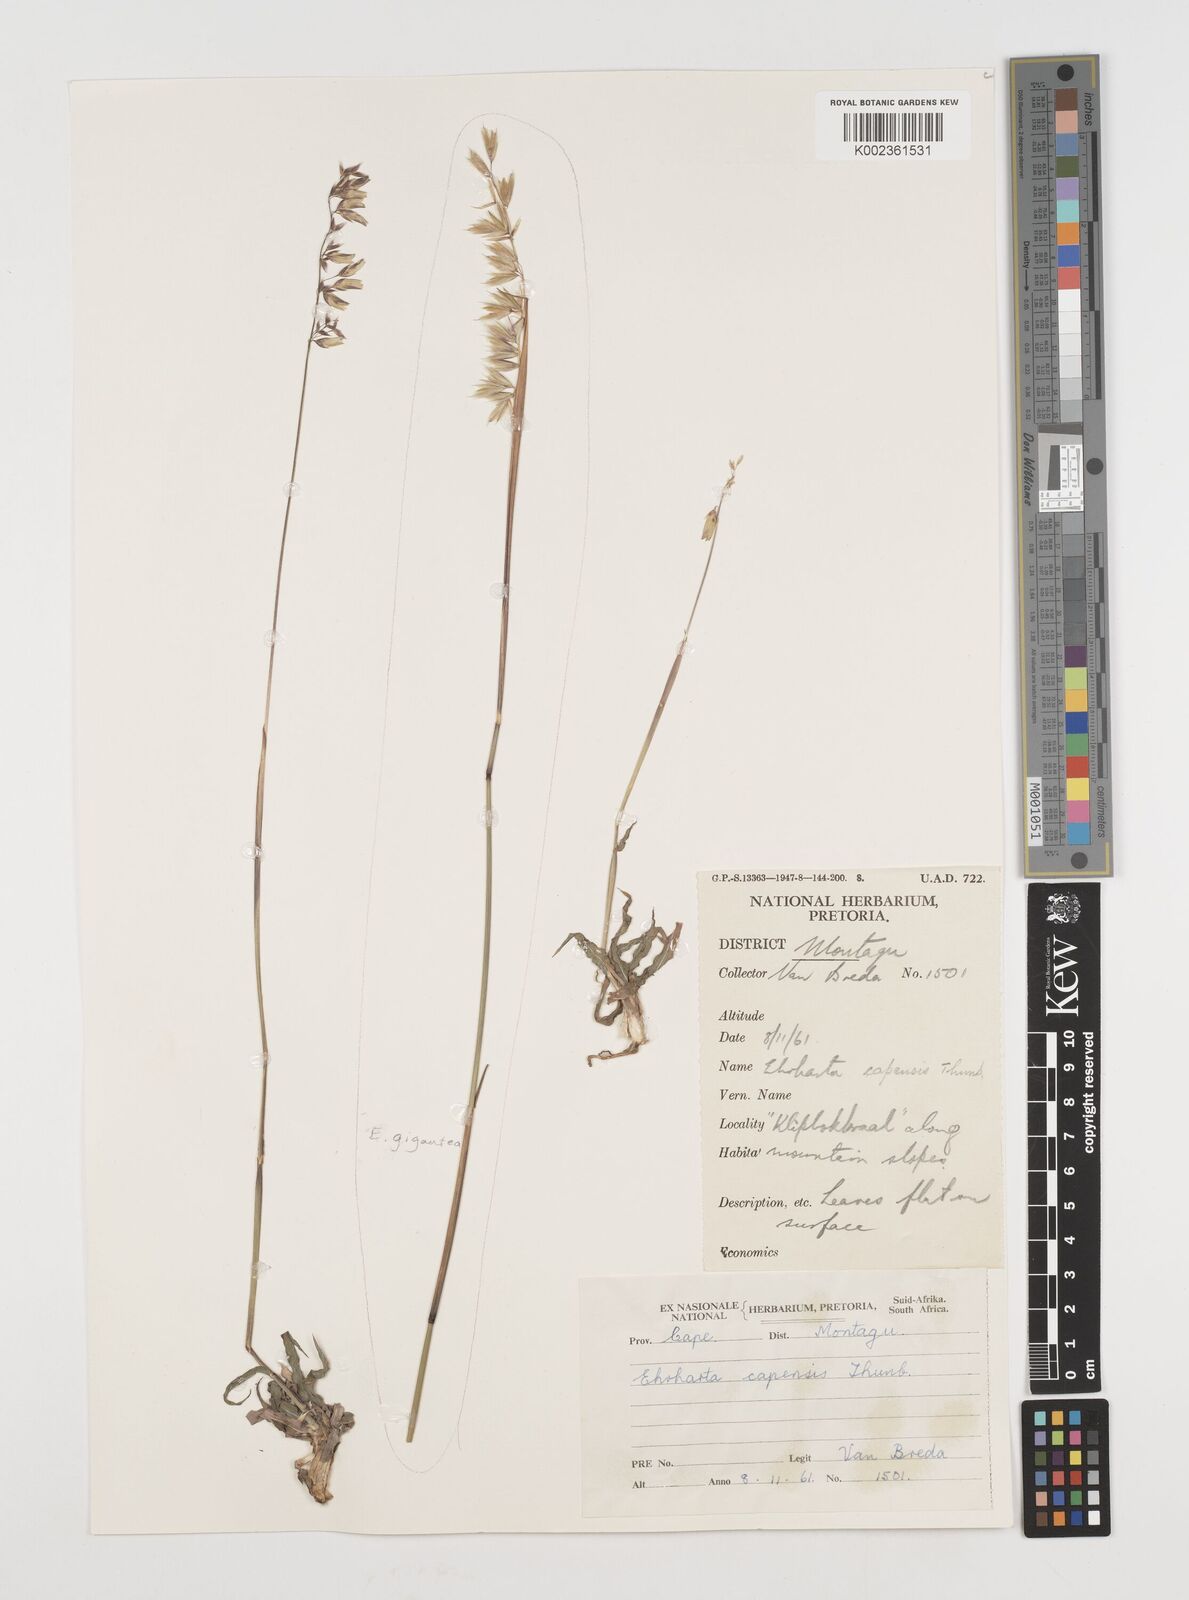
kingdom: Plantae
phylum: Tracheophyta
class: Liliopsida
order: Poales
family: Poaceae
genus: Ehrharta
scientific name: Ehrharta capensis
